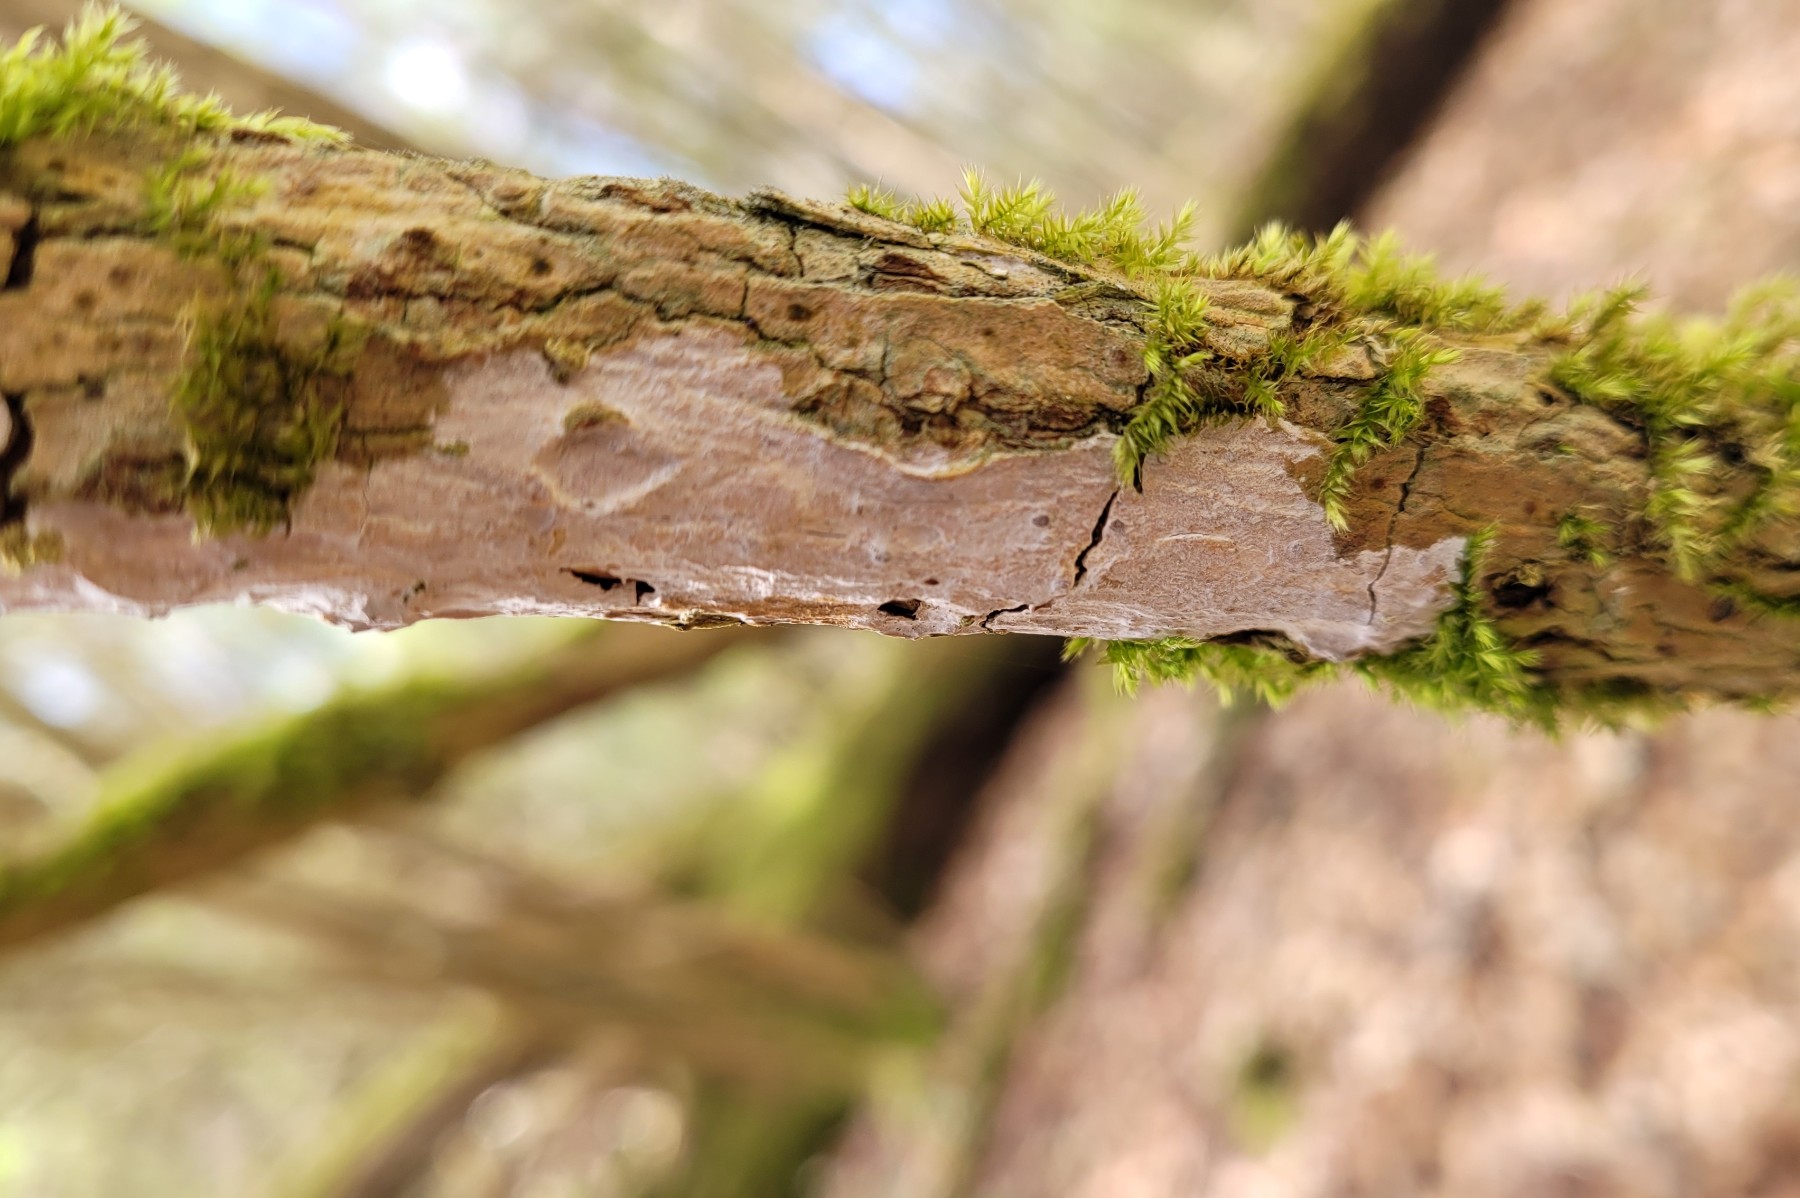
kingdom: Fungi
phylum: Basidiomycota
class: Agaricomycetes
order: Corticiales
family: Corticiaceae
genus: Lyomyces
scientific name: Lyomyces sambuci
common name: almindelig hyldehinde
